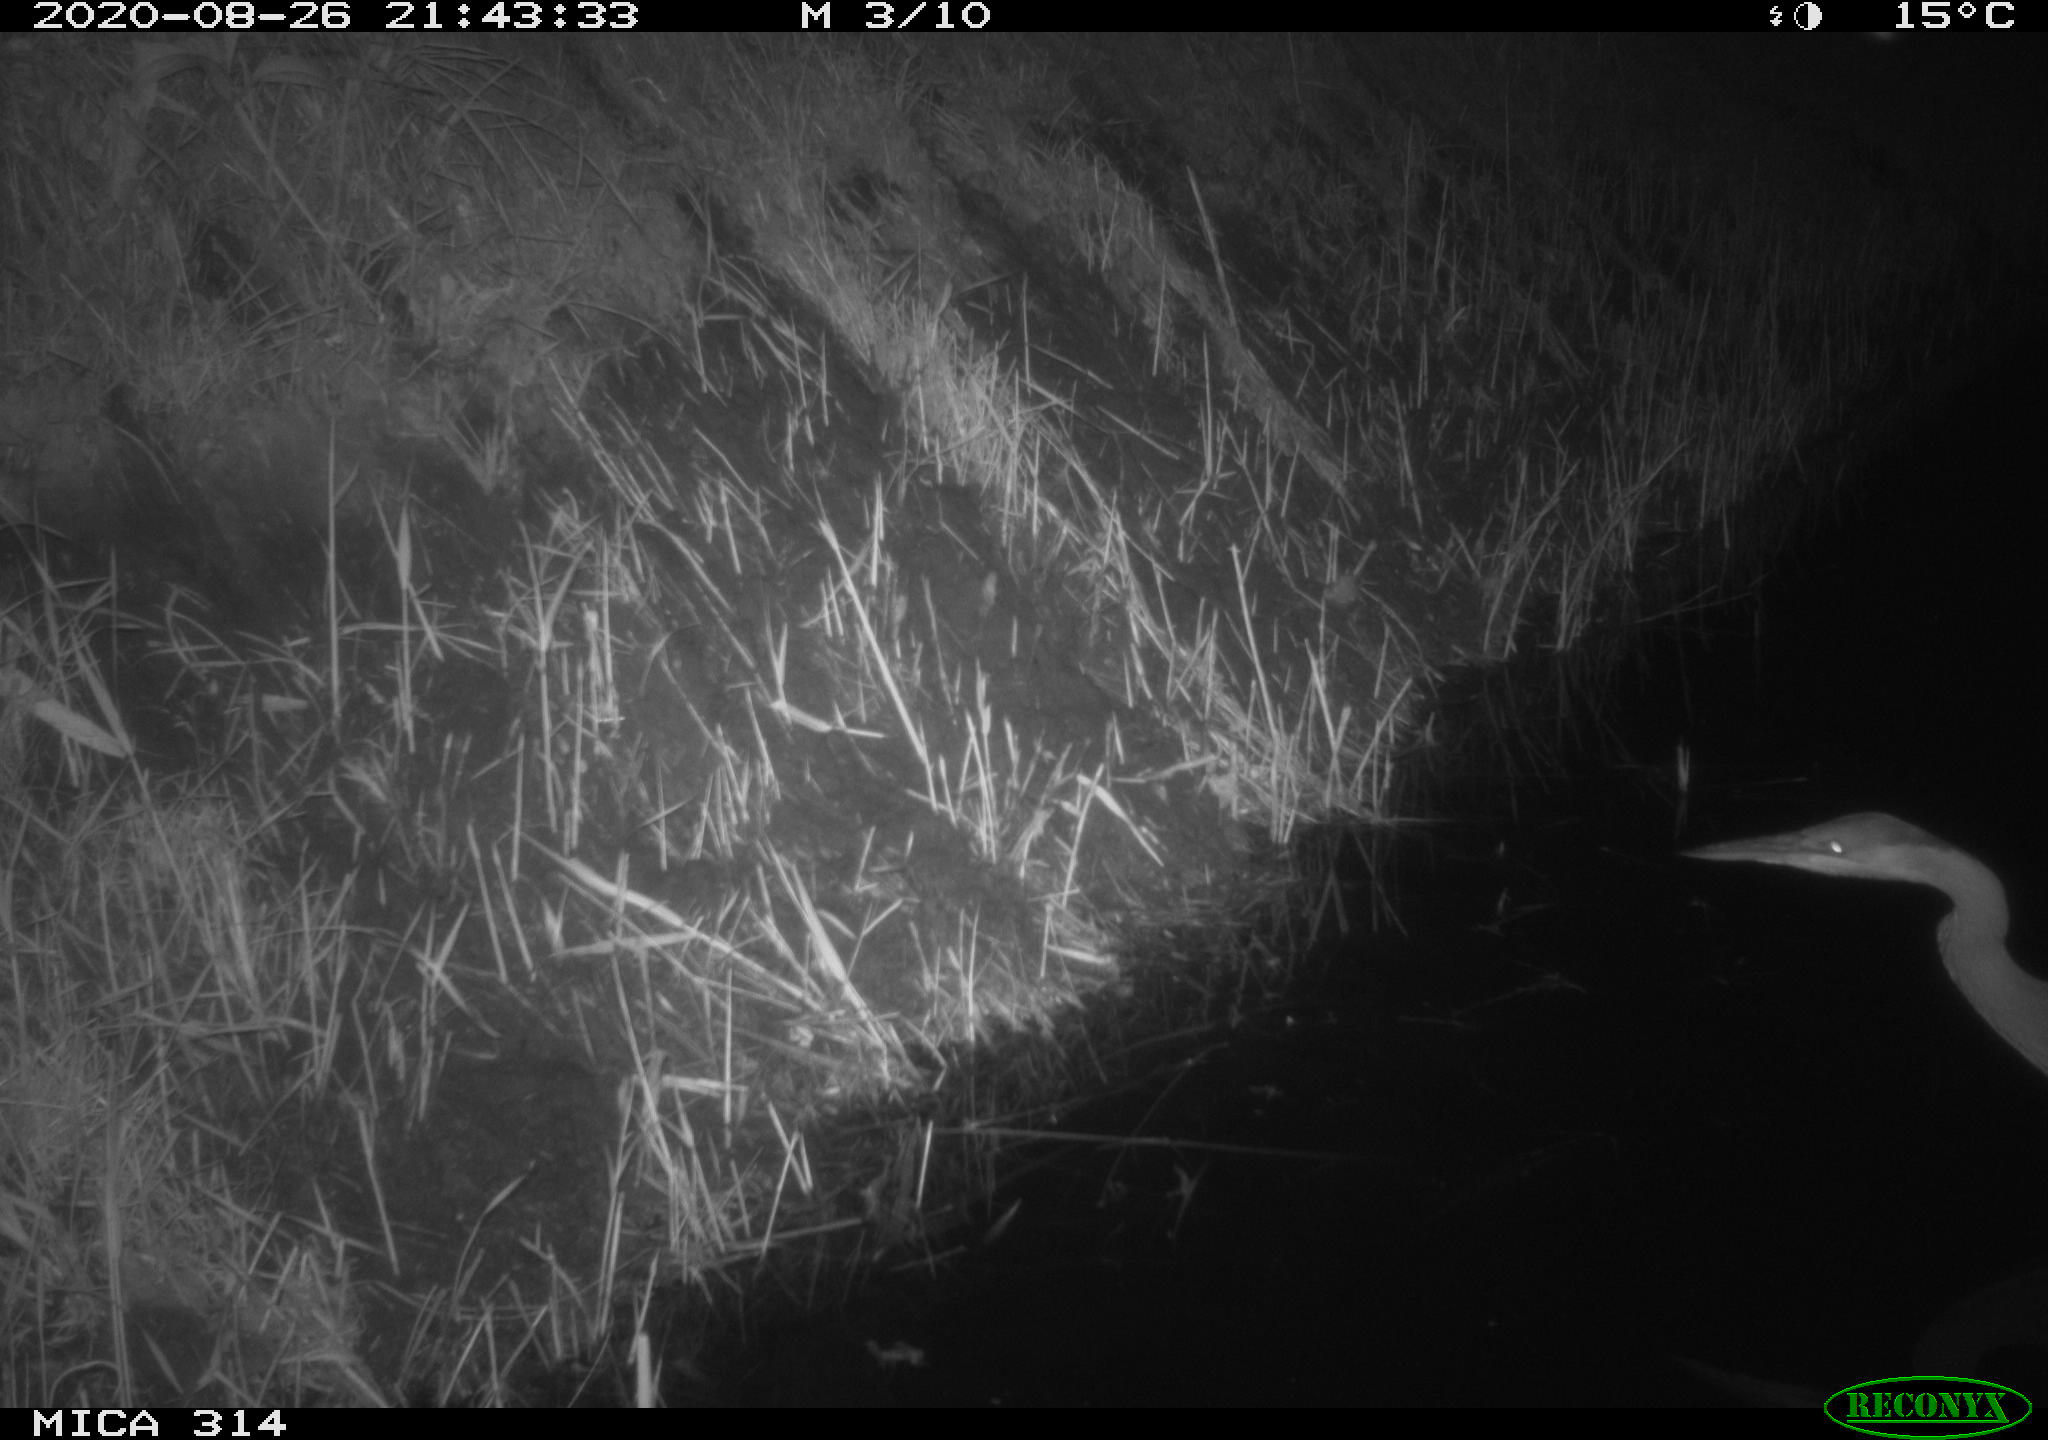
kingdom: Animalia
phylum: Chordata
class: Aves
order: Pelecaniformes
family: Ardeidae
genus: Ardea
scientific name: Ardea cinerea
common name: Grey heron
